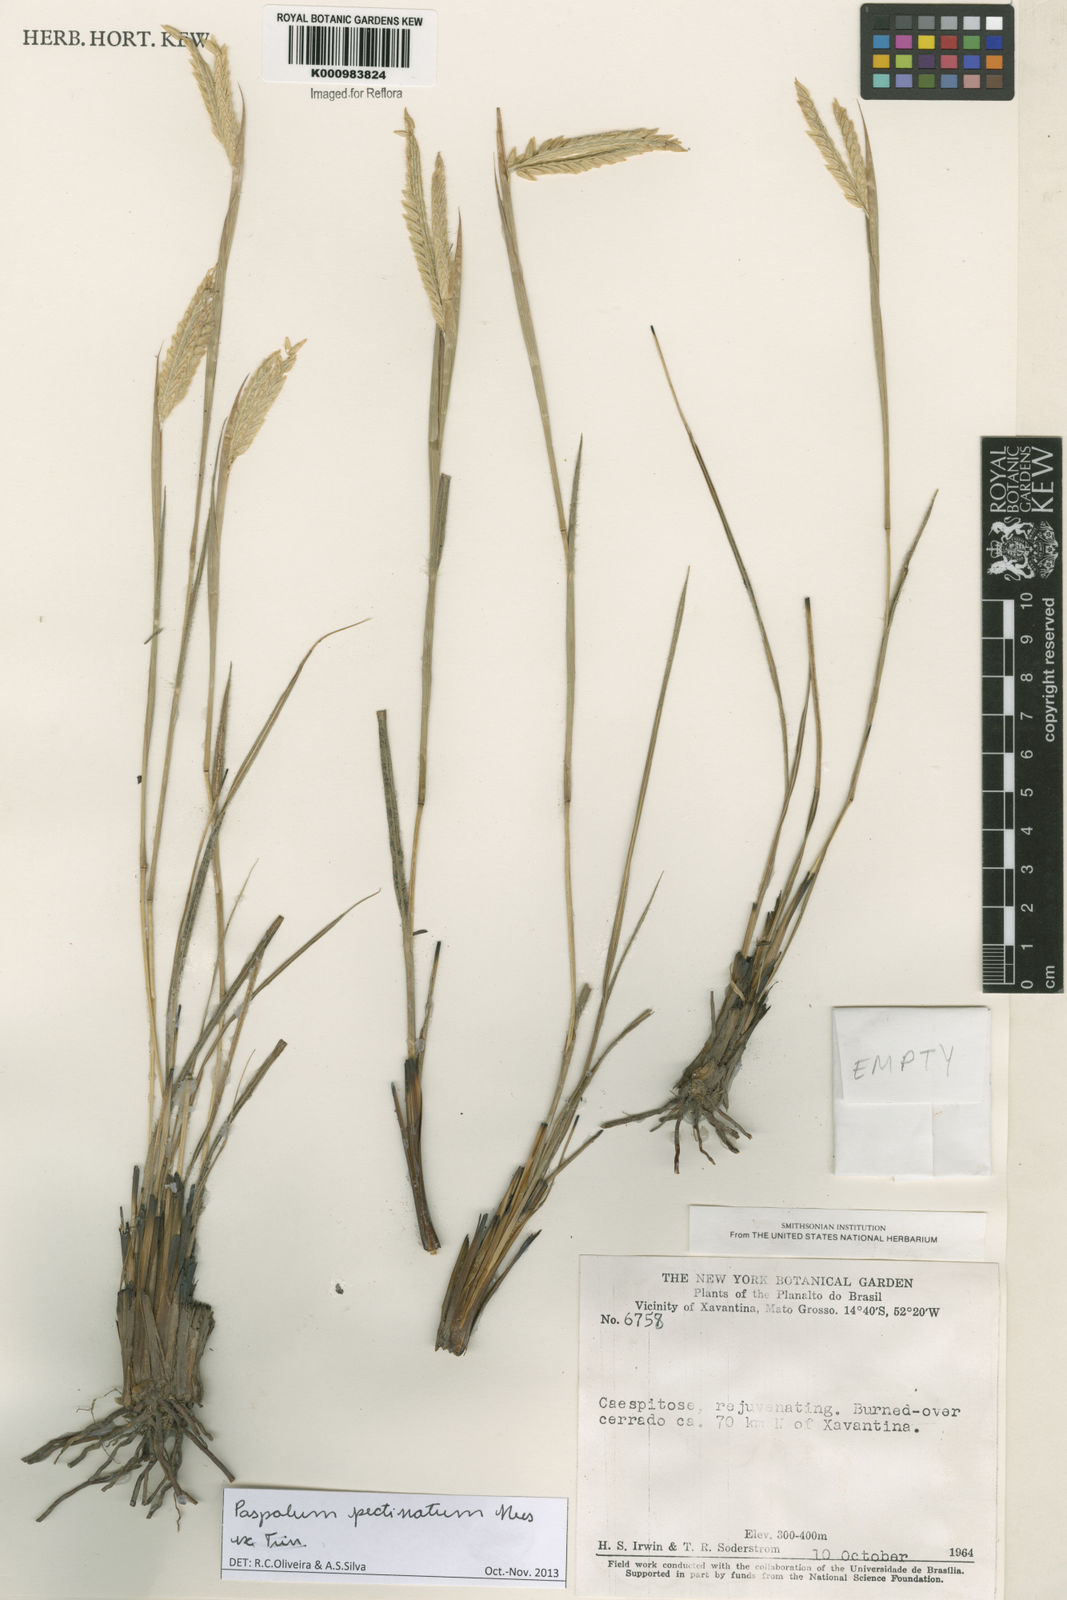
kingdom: Plantae
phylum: Tracheophyta
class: Liliopsida
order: Poales
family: Poaceae
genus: Paspalum
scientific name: Paspalum
